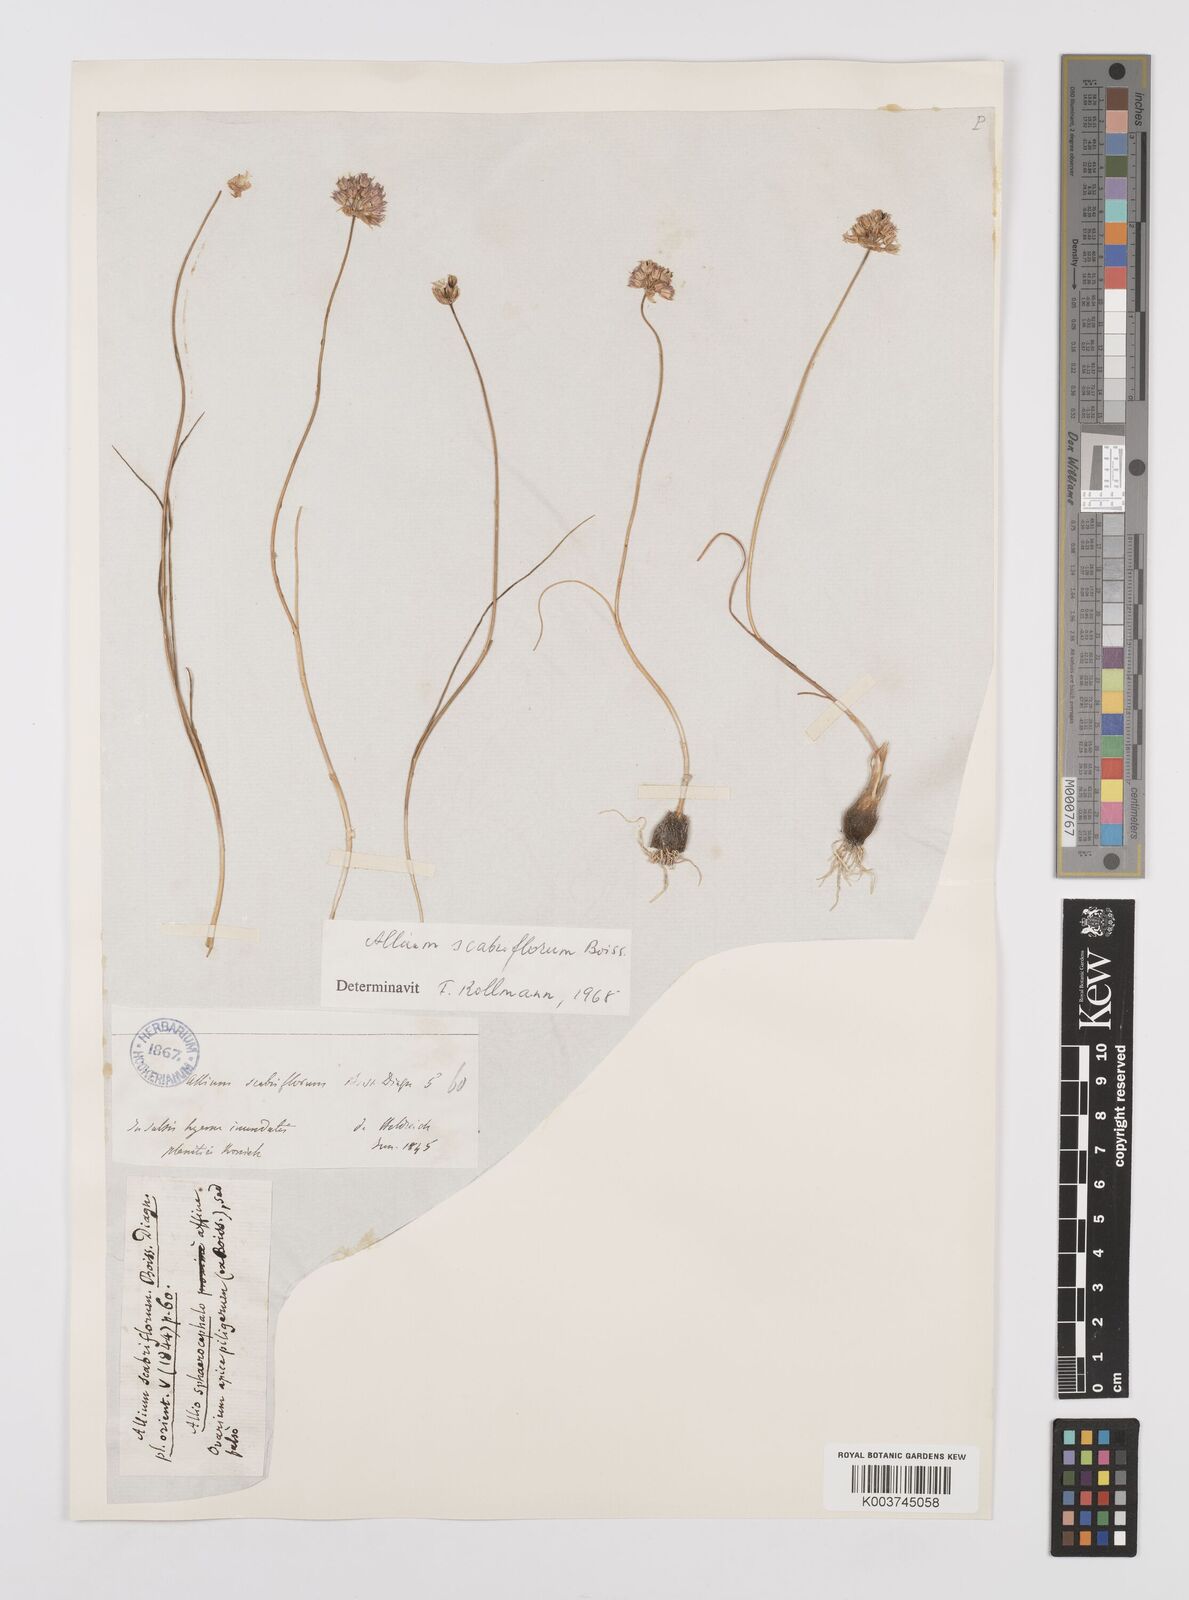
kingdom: Plantae
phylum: Tracheophyta
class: Liliopsida
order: Asparagales
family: Amaryllidaceae
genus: Allium
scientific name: Allium scabriflorum
